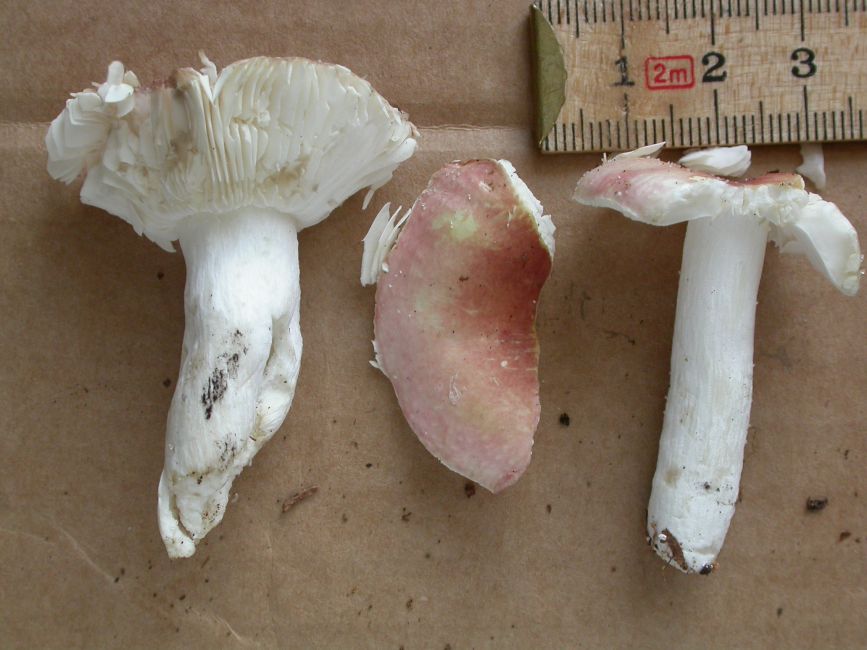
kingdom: Fungi
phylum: Basidiomycota
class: Agaricomycetes
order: Russulales
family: Russulaceae
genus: Russula
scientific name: Russula betularum
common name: bleg gift-skørhat
